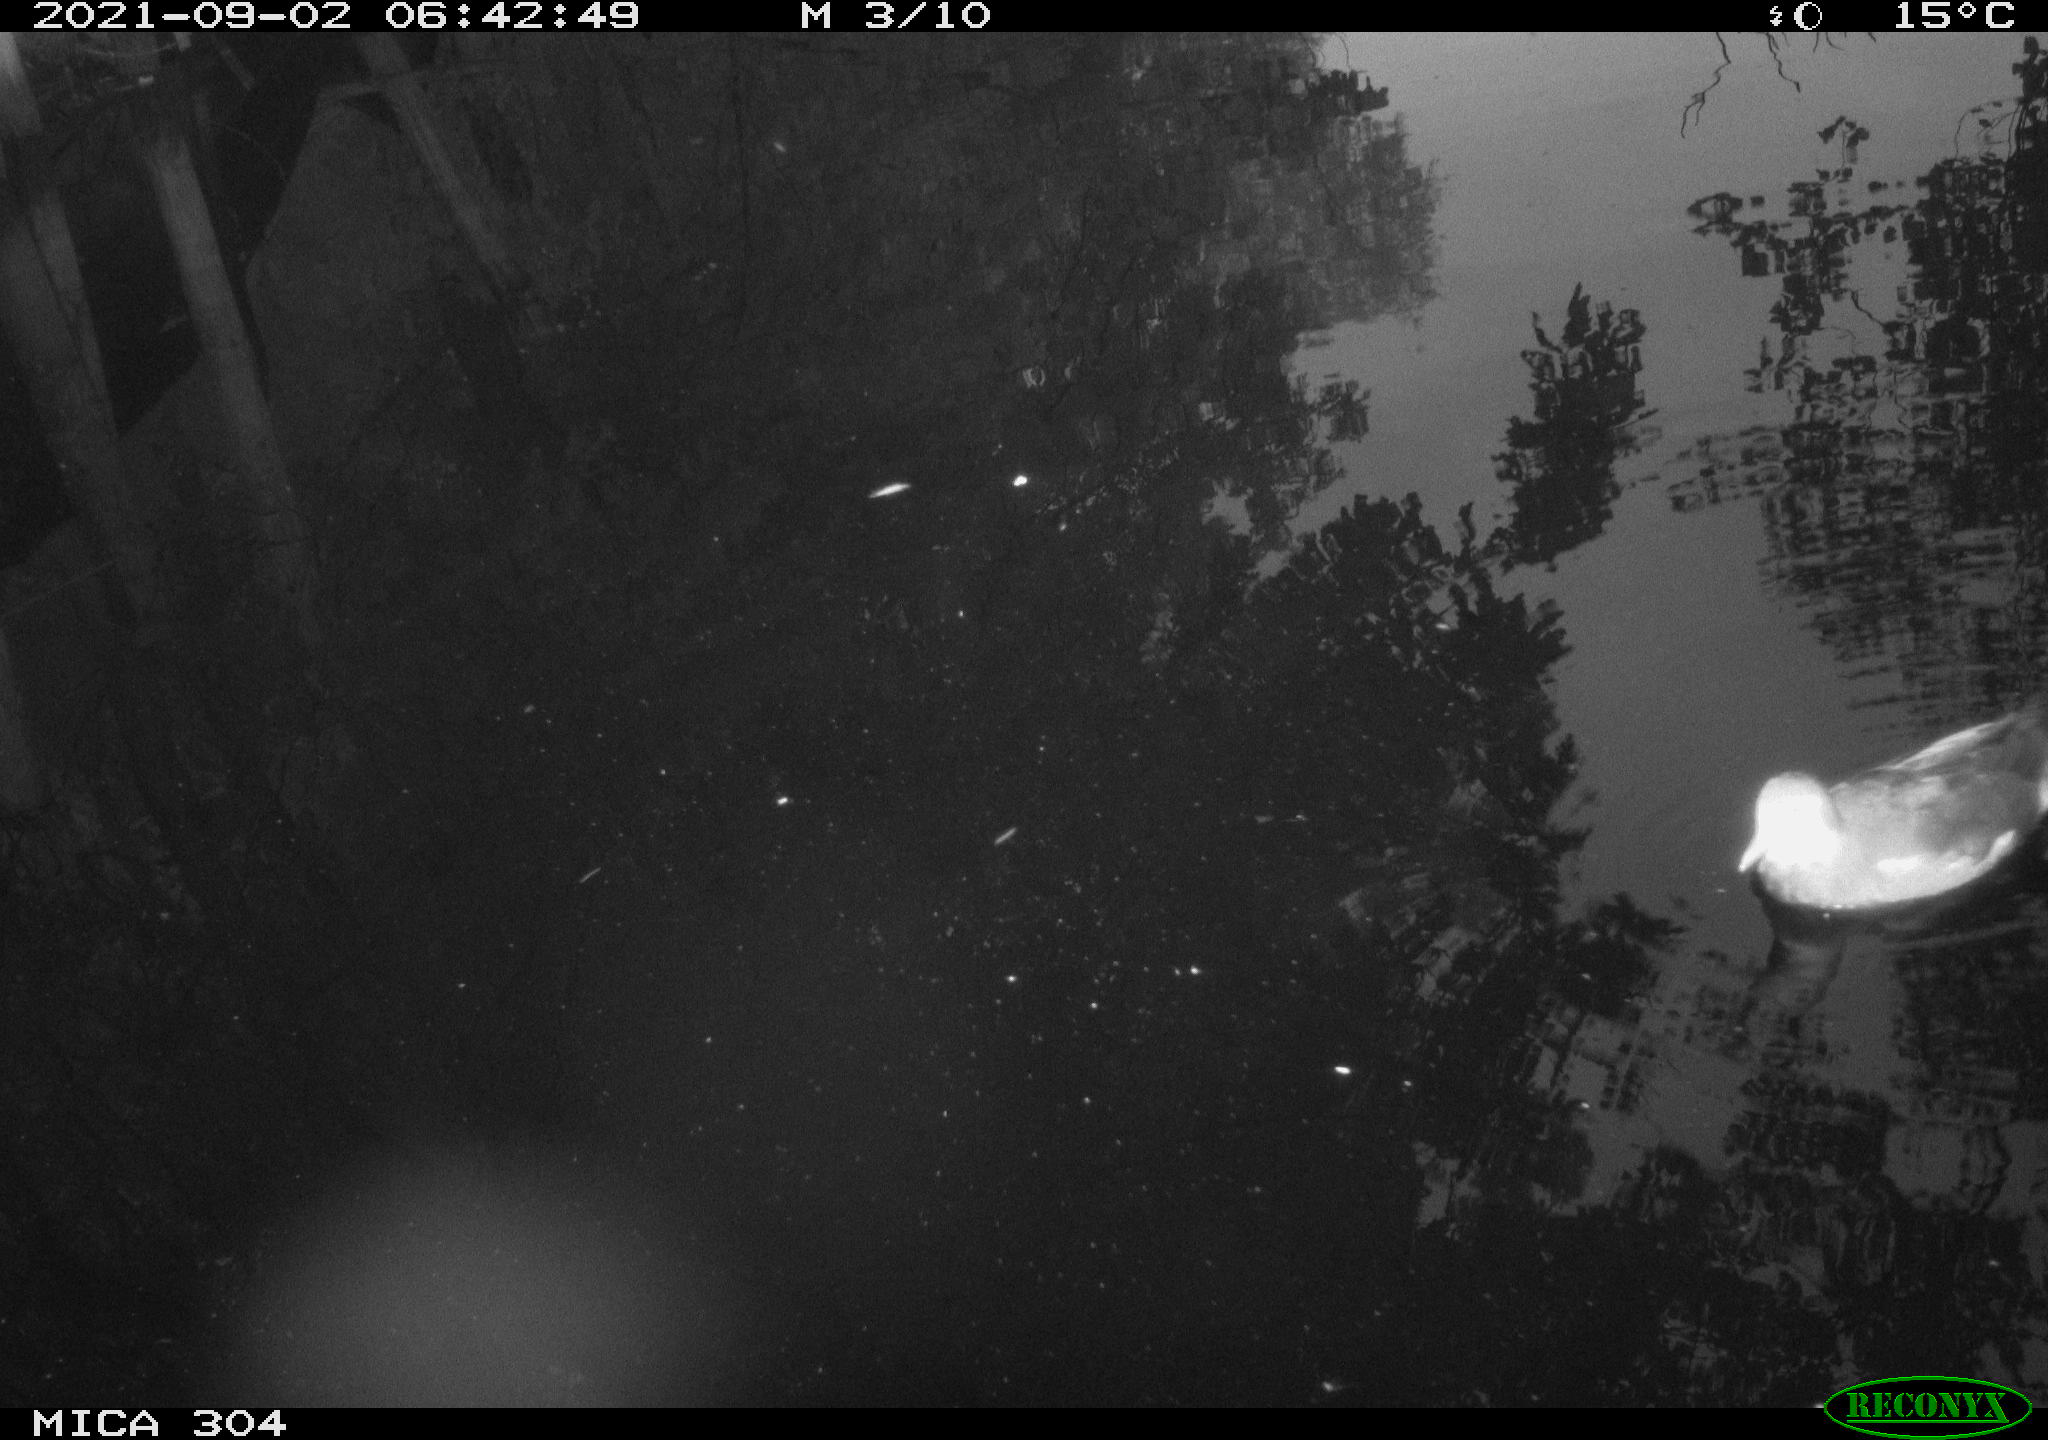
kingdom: Animalia
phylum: Chordata
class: Aves
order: Anseriformes
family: Anatidae
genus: Anas
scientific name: Anas platyrhynchos
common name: Mallard
